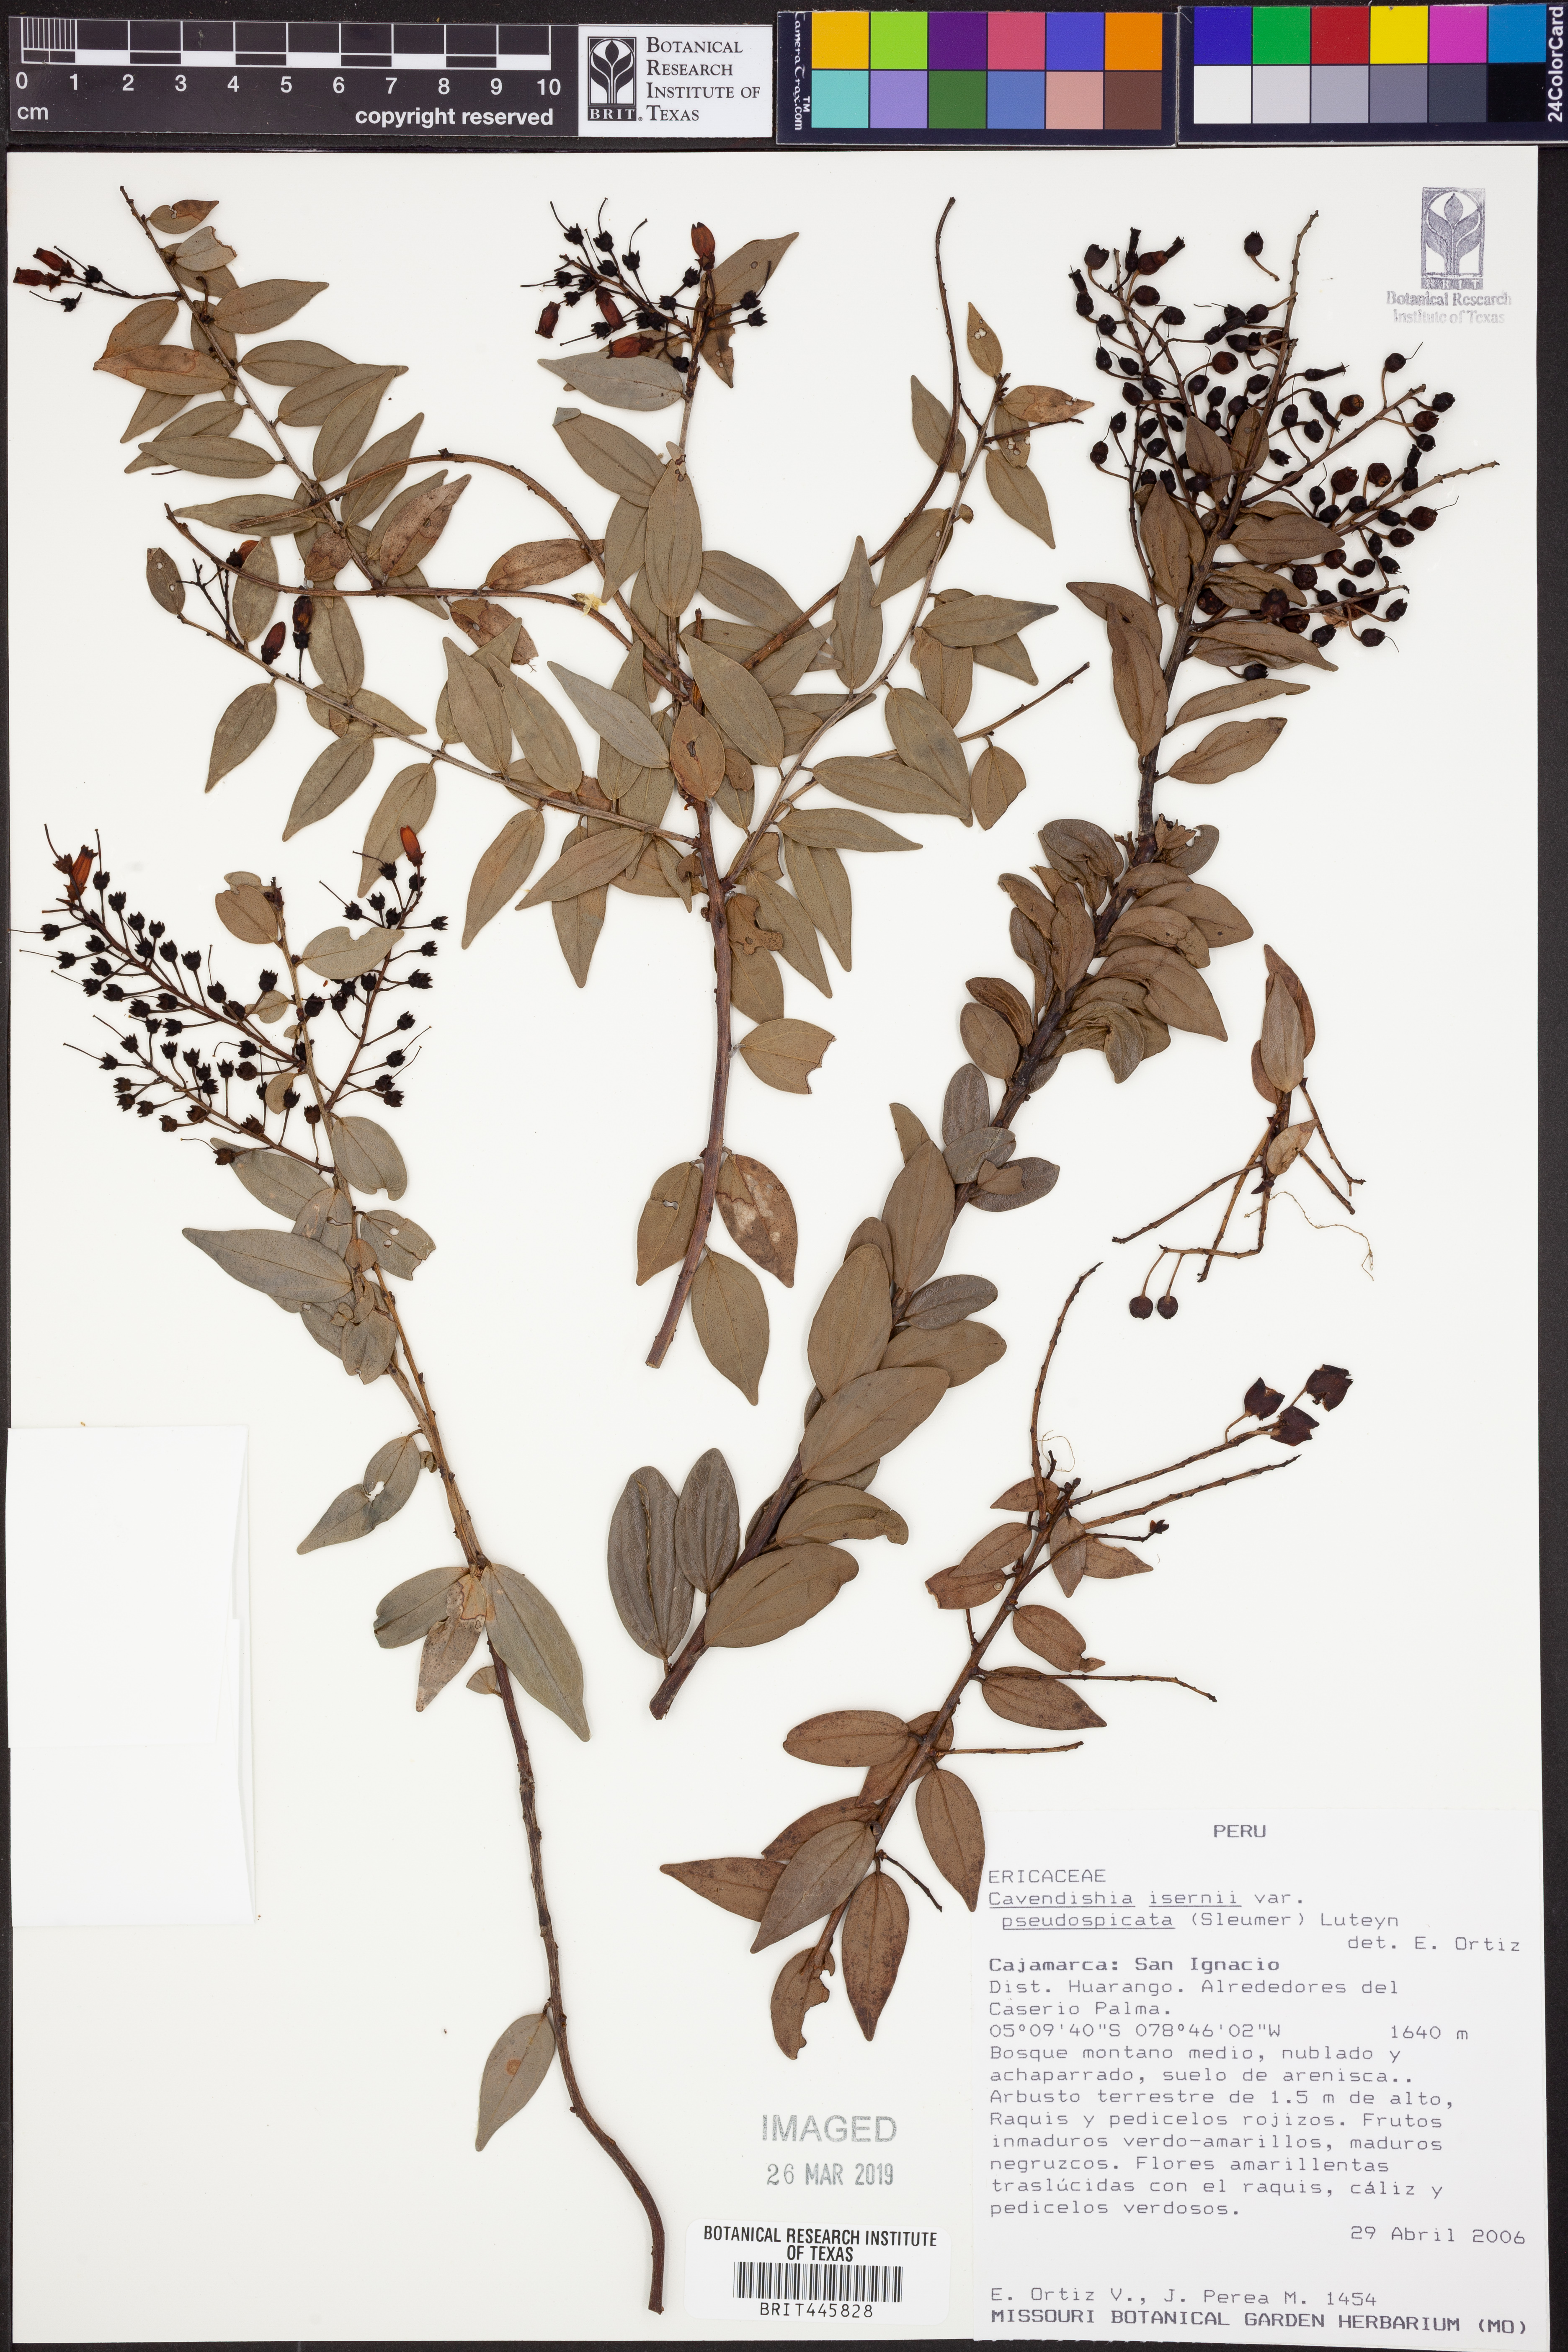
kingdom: Plantae
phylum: Tracheophyta
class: Magnoliopsida
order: Ericales
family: Ericaceae
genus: Cavendishia
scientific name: Cavendishia isernii
